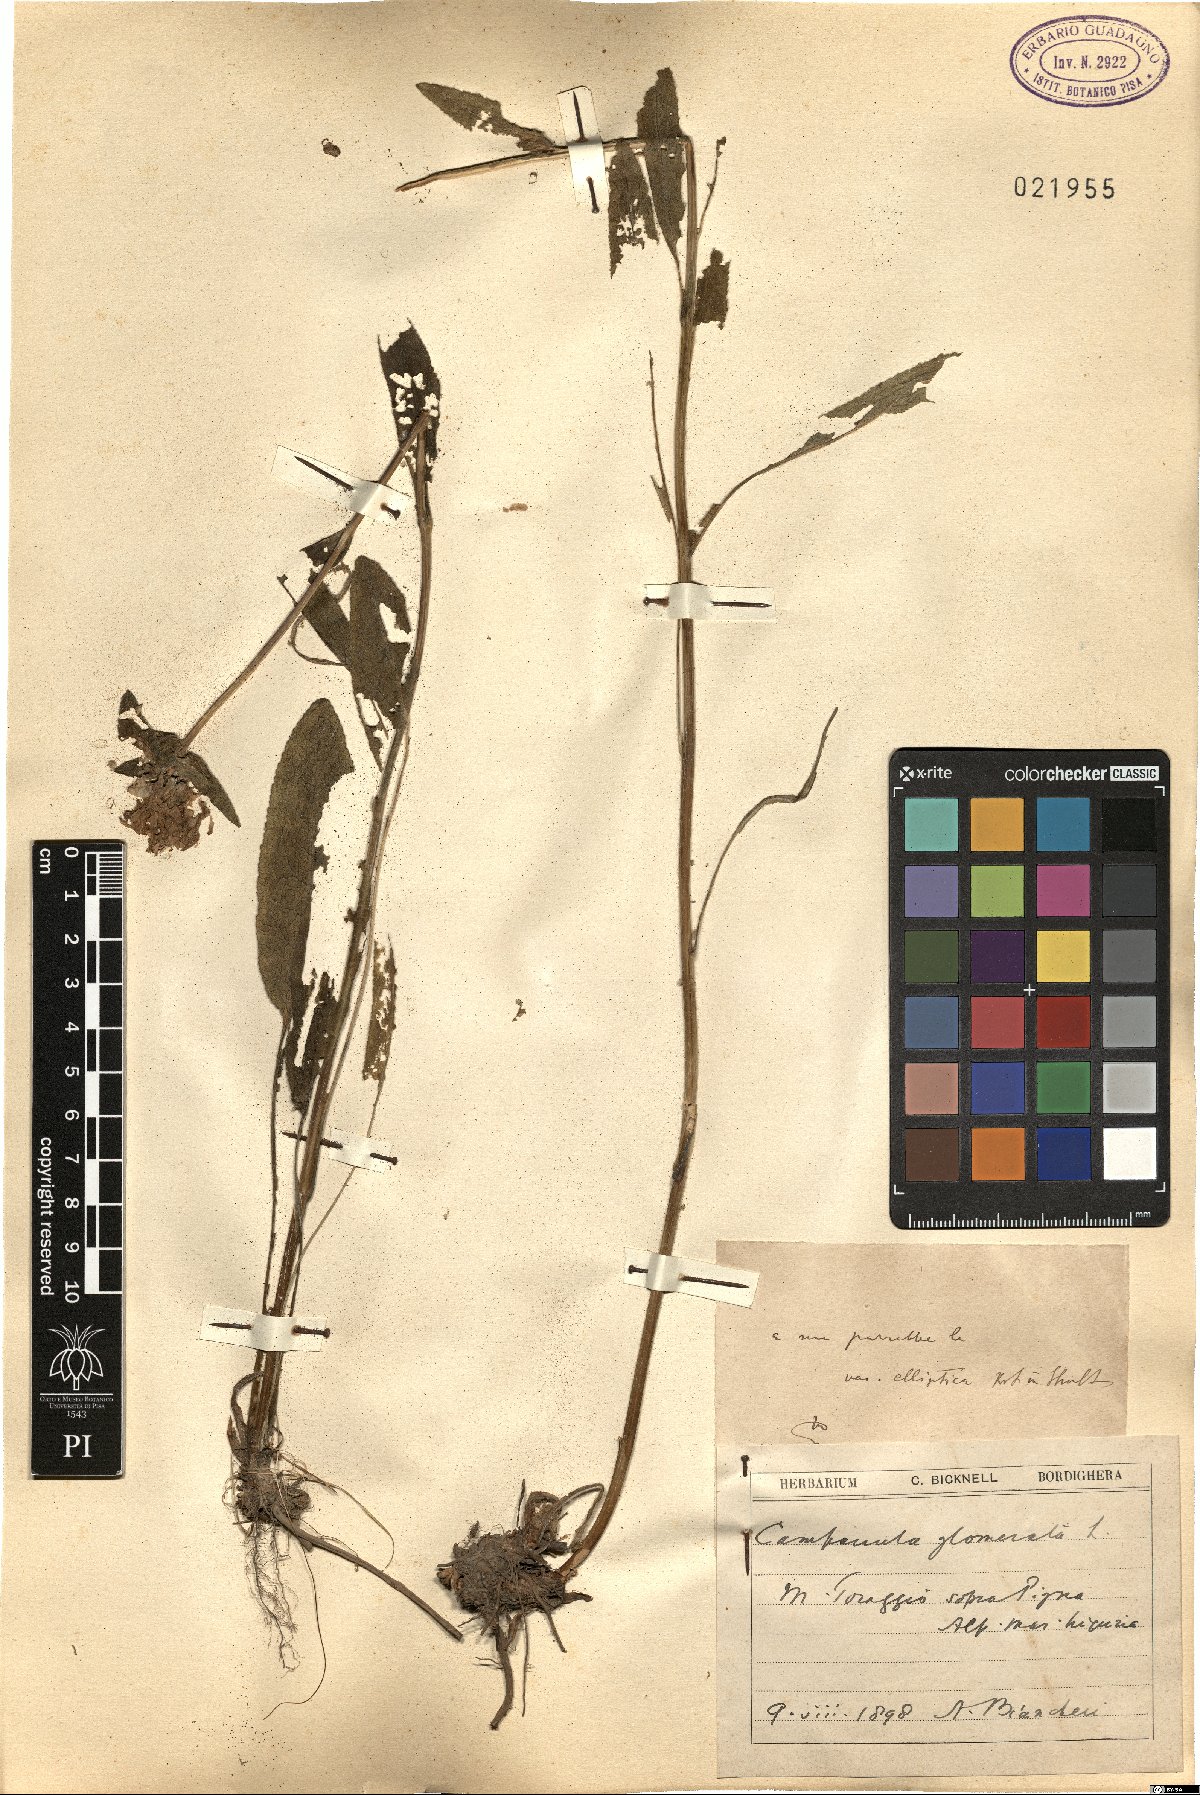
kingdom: Plantae
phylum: Tracheophyta
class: Magnoliopsida
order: Asterales
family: Campanulaceae
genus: Campanula
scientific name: Campanula glomerata
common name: Clustered bellflower
